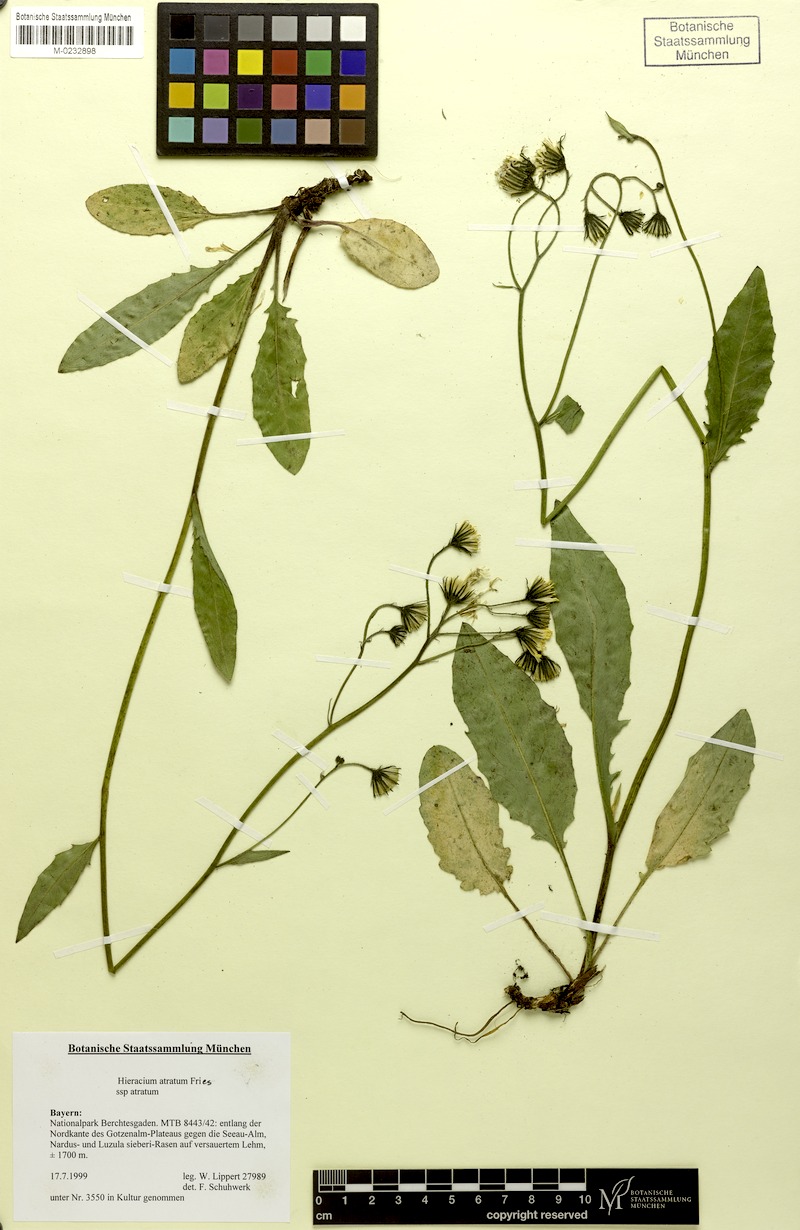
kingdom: Plantae
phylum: Tracheophyta
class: Magnoliopsida
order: Asterales
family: Asteraceae
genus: Hieracium
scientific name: Hieracium atratum
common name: Polar hawkweed
